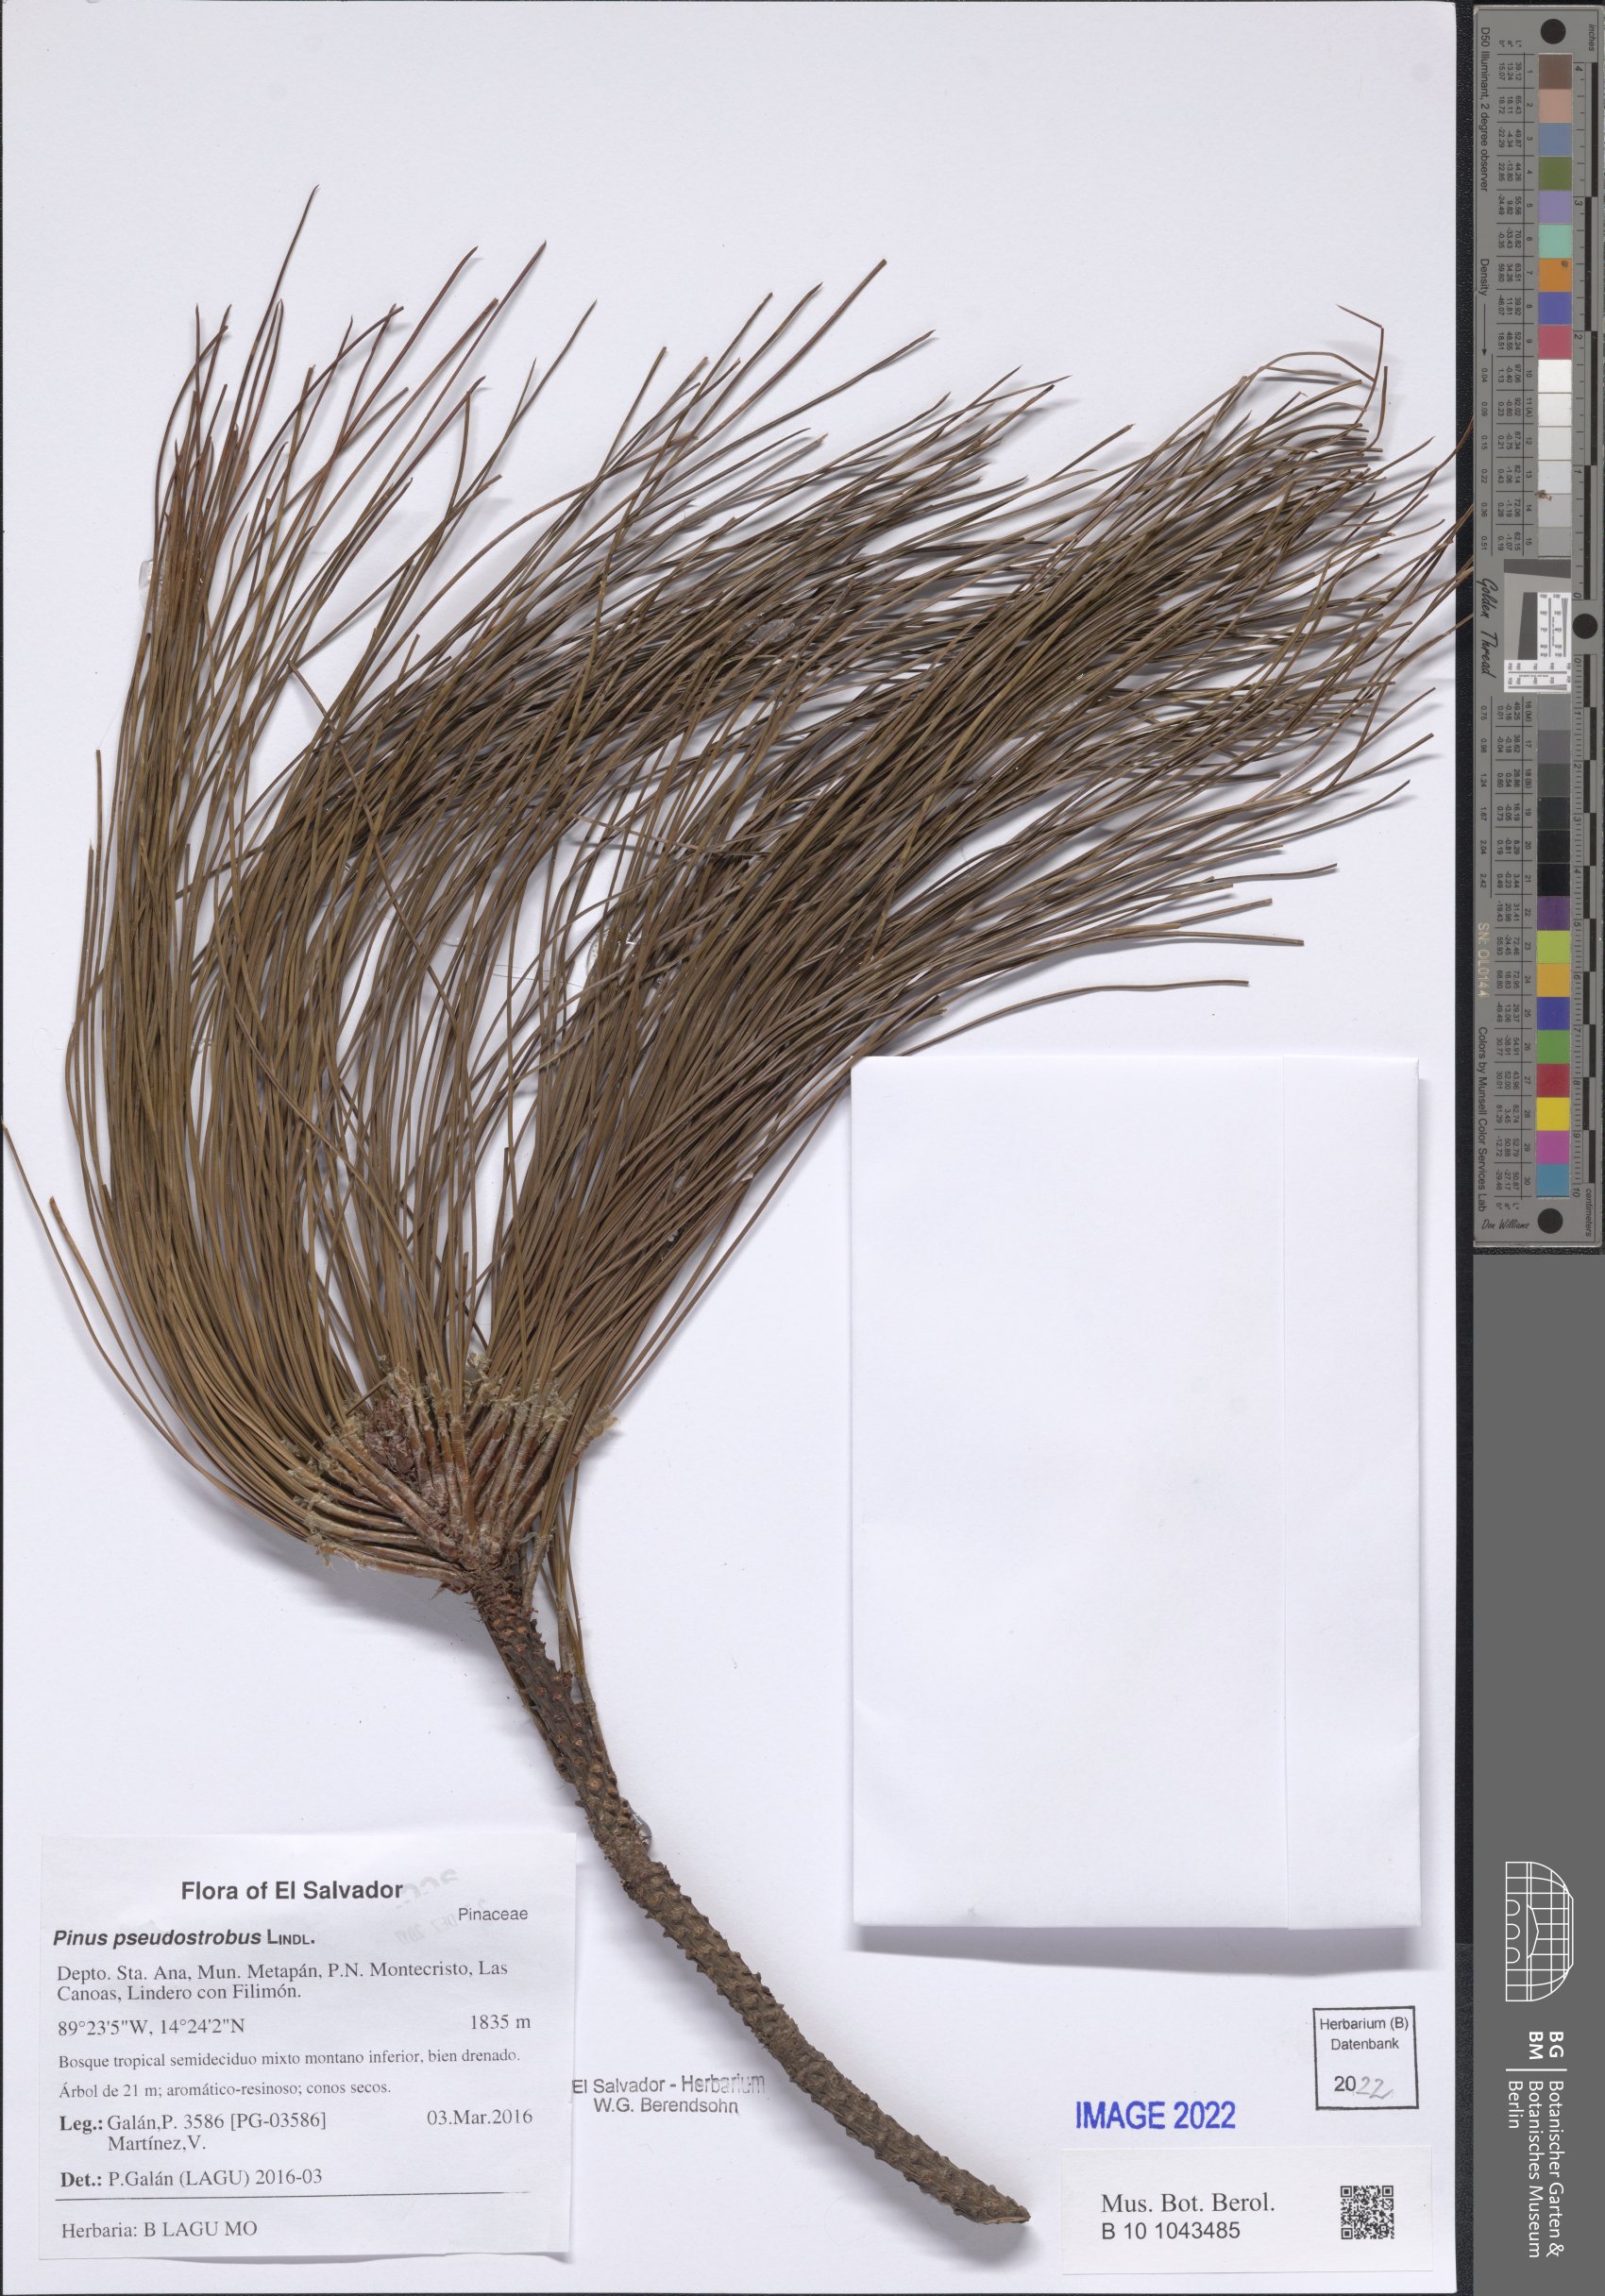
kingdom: Plantae
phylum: Tracheophyta
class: Pinopsida
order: Pinales
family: Pinaceae
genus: Pinus
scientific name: Pinus pseudostrobus
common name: False weymouth pine
